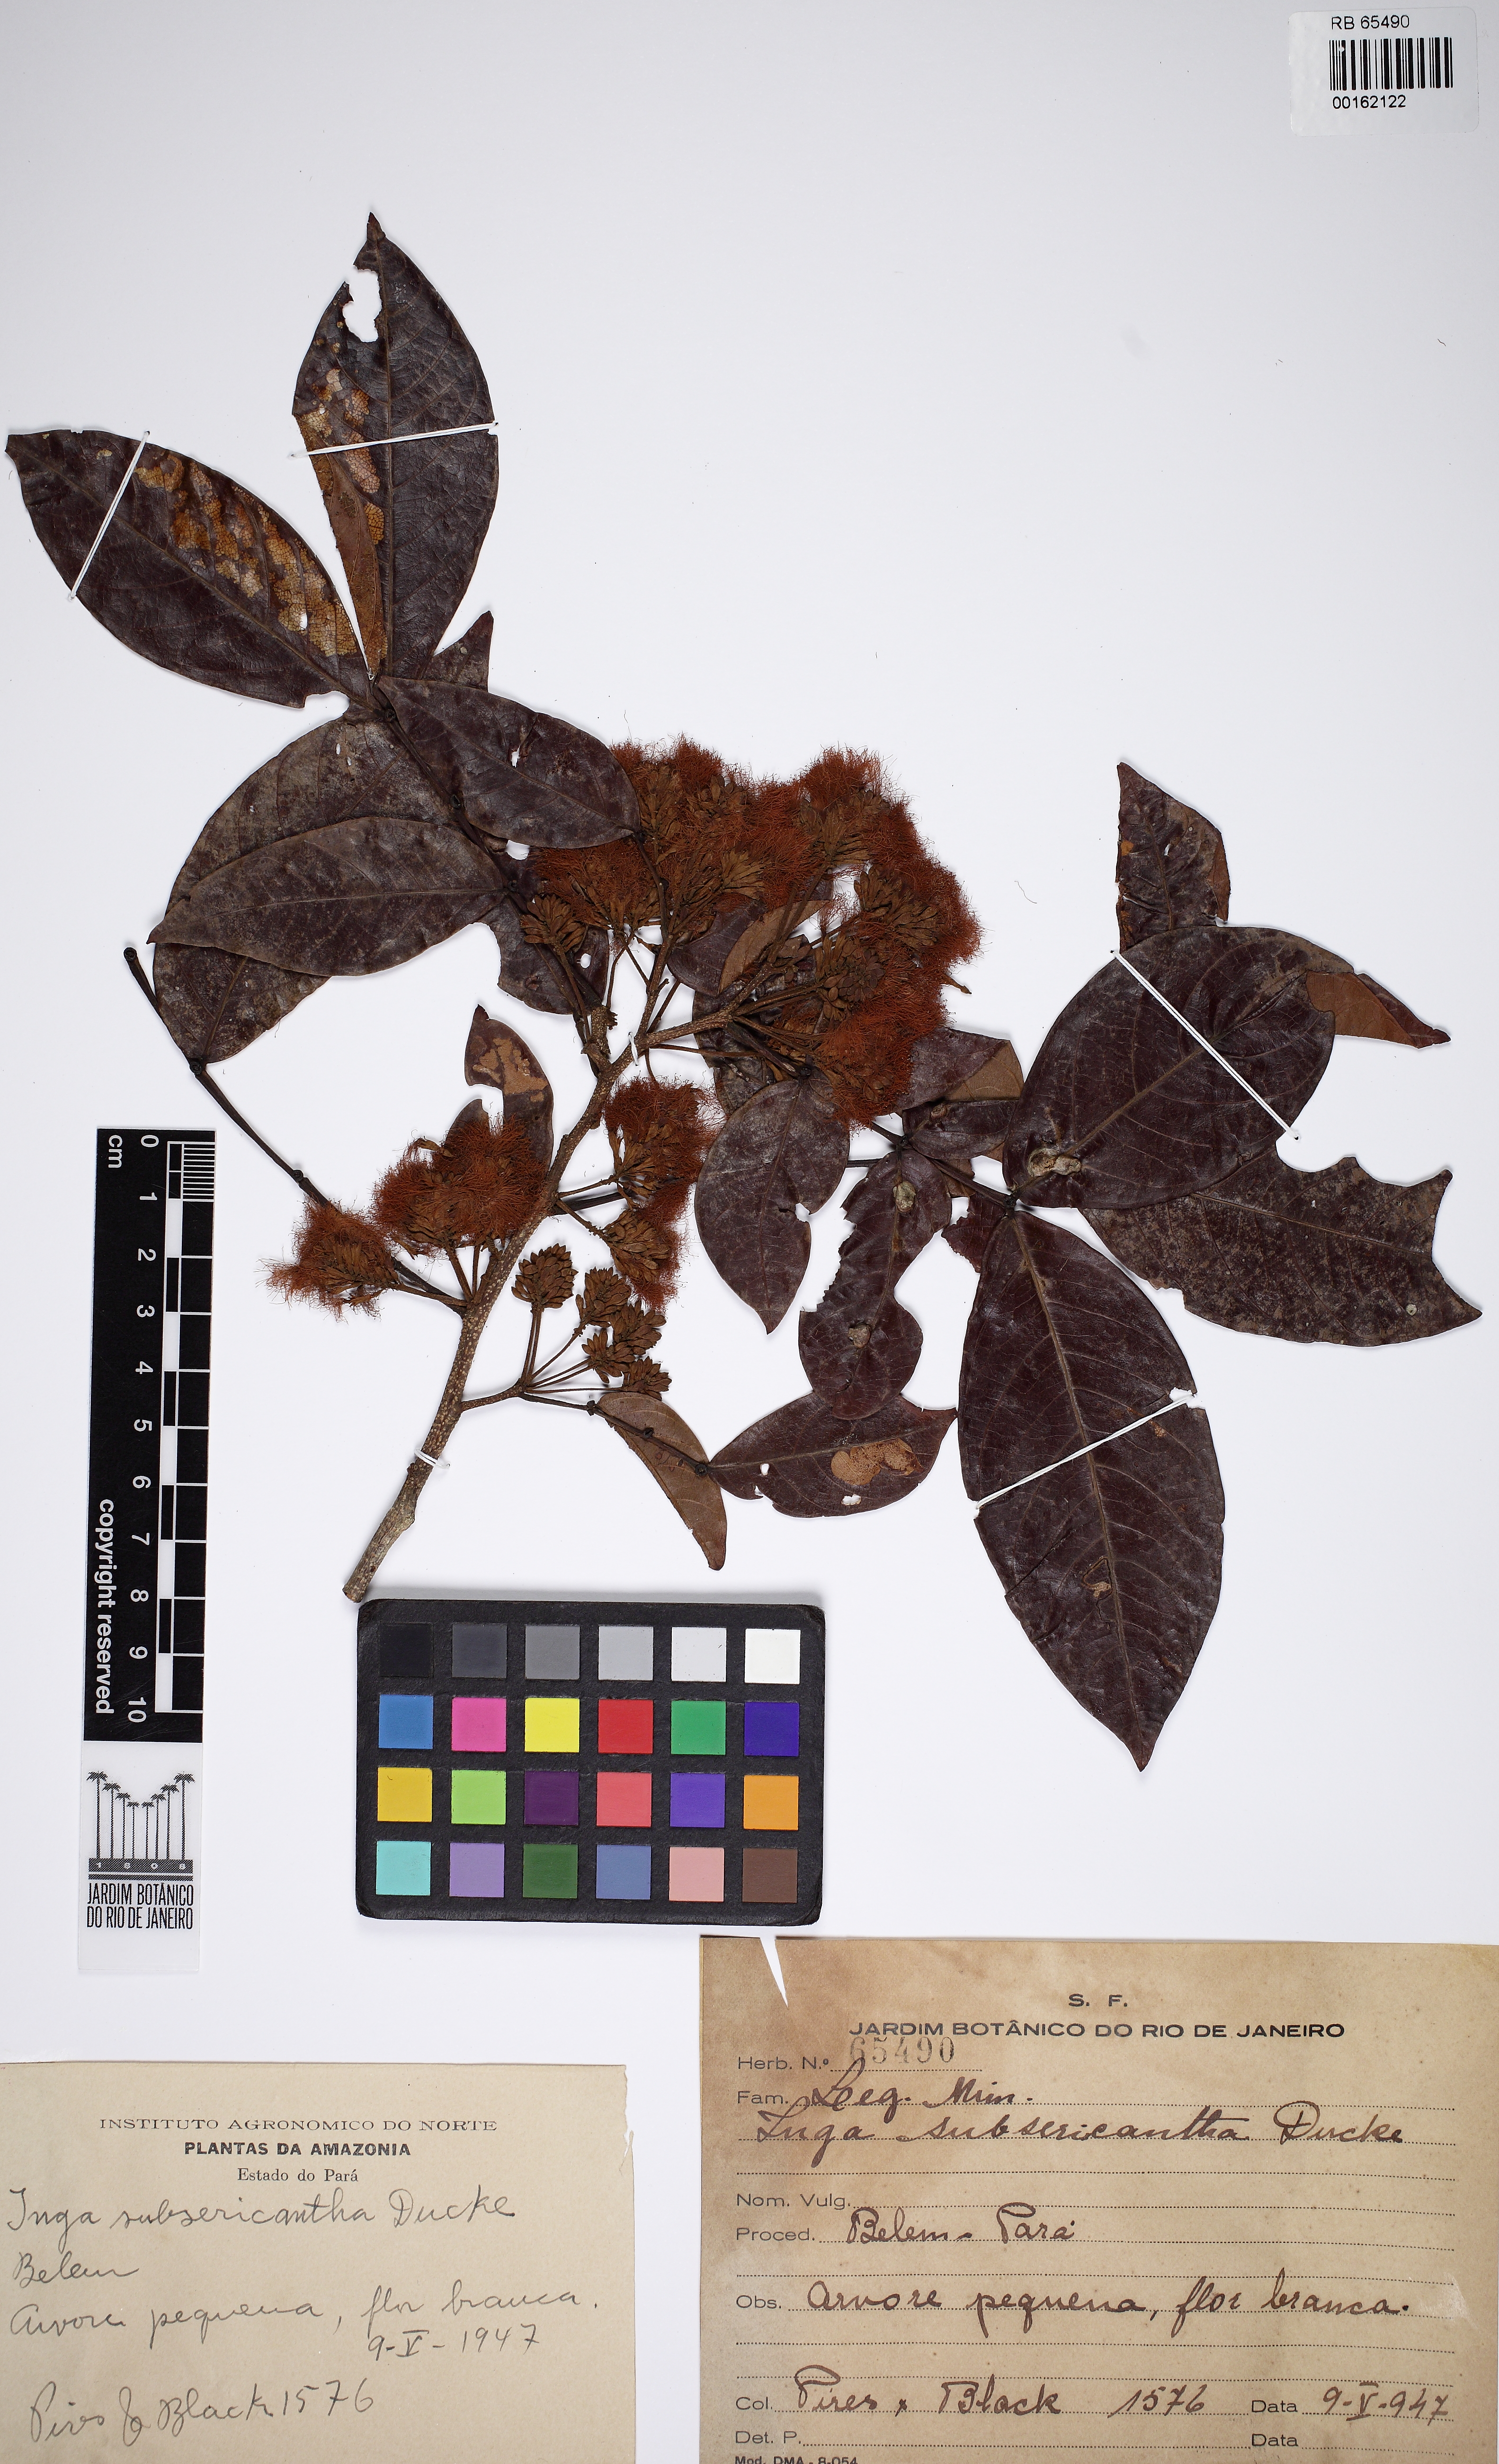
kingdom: Plantae
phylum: Tracheophyta
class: Magnoliopsida
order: Fabales
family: Fabaceae
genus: Inga
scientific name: Inga pezizifera
